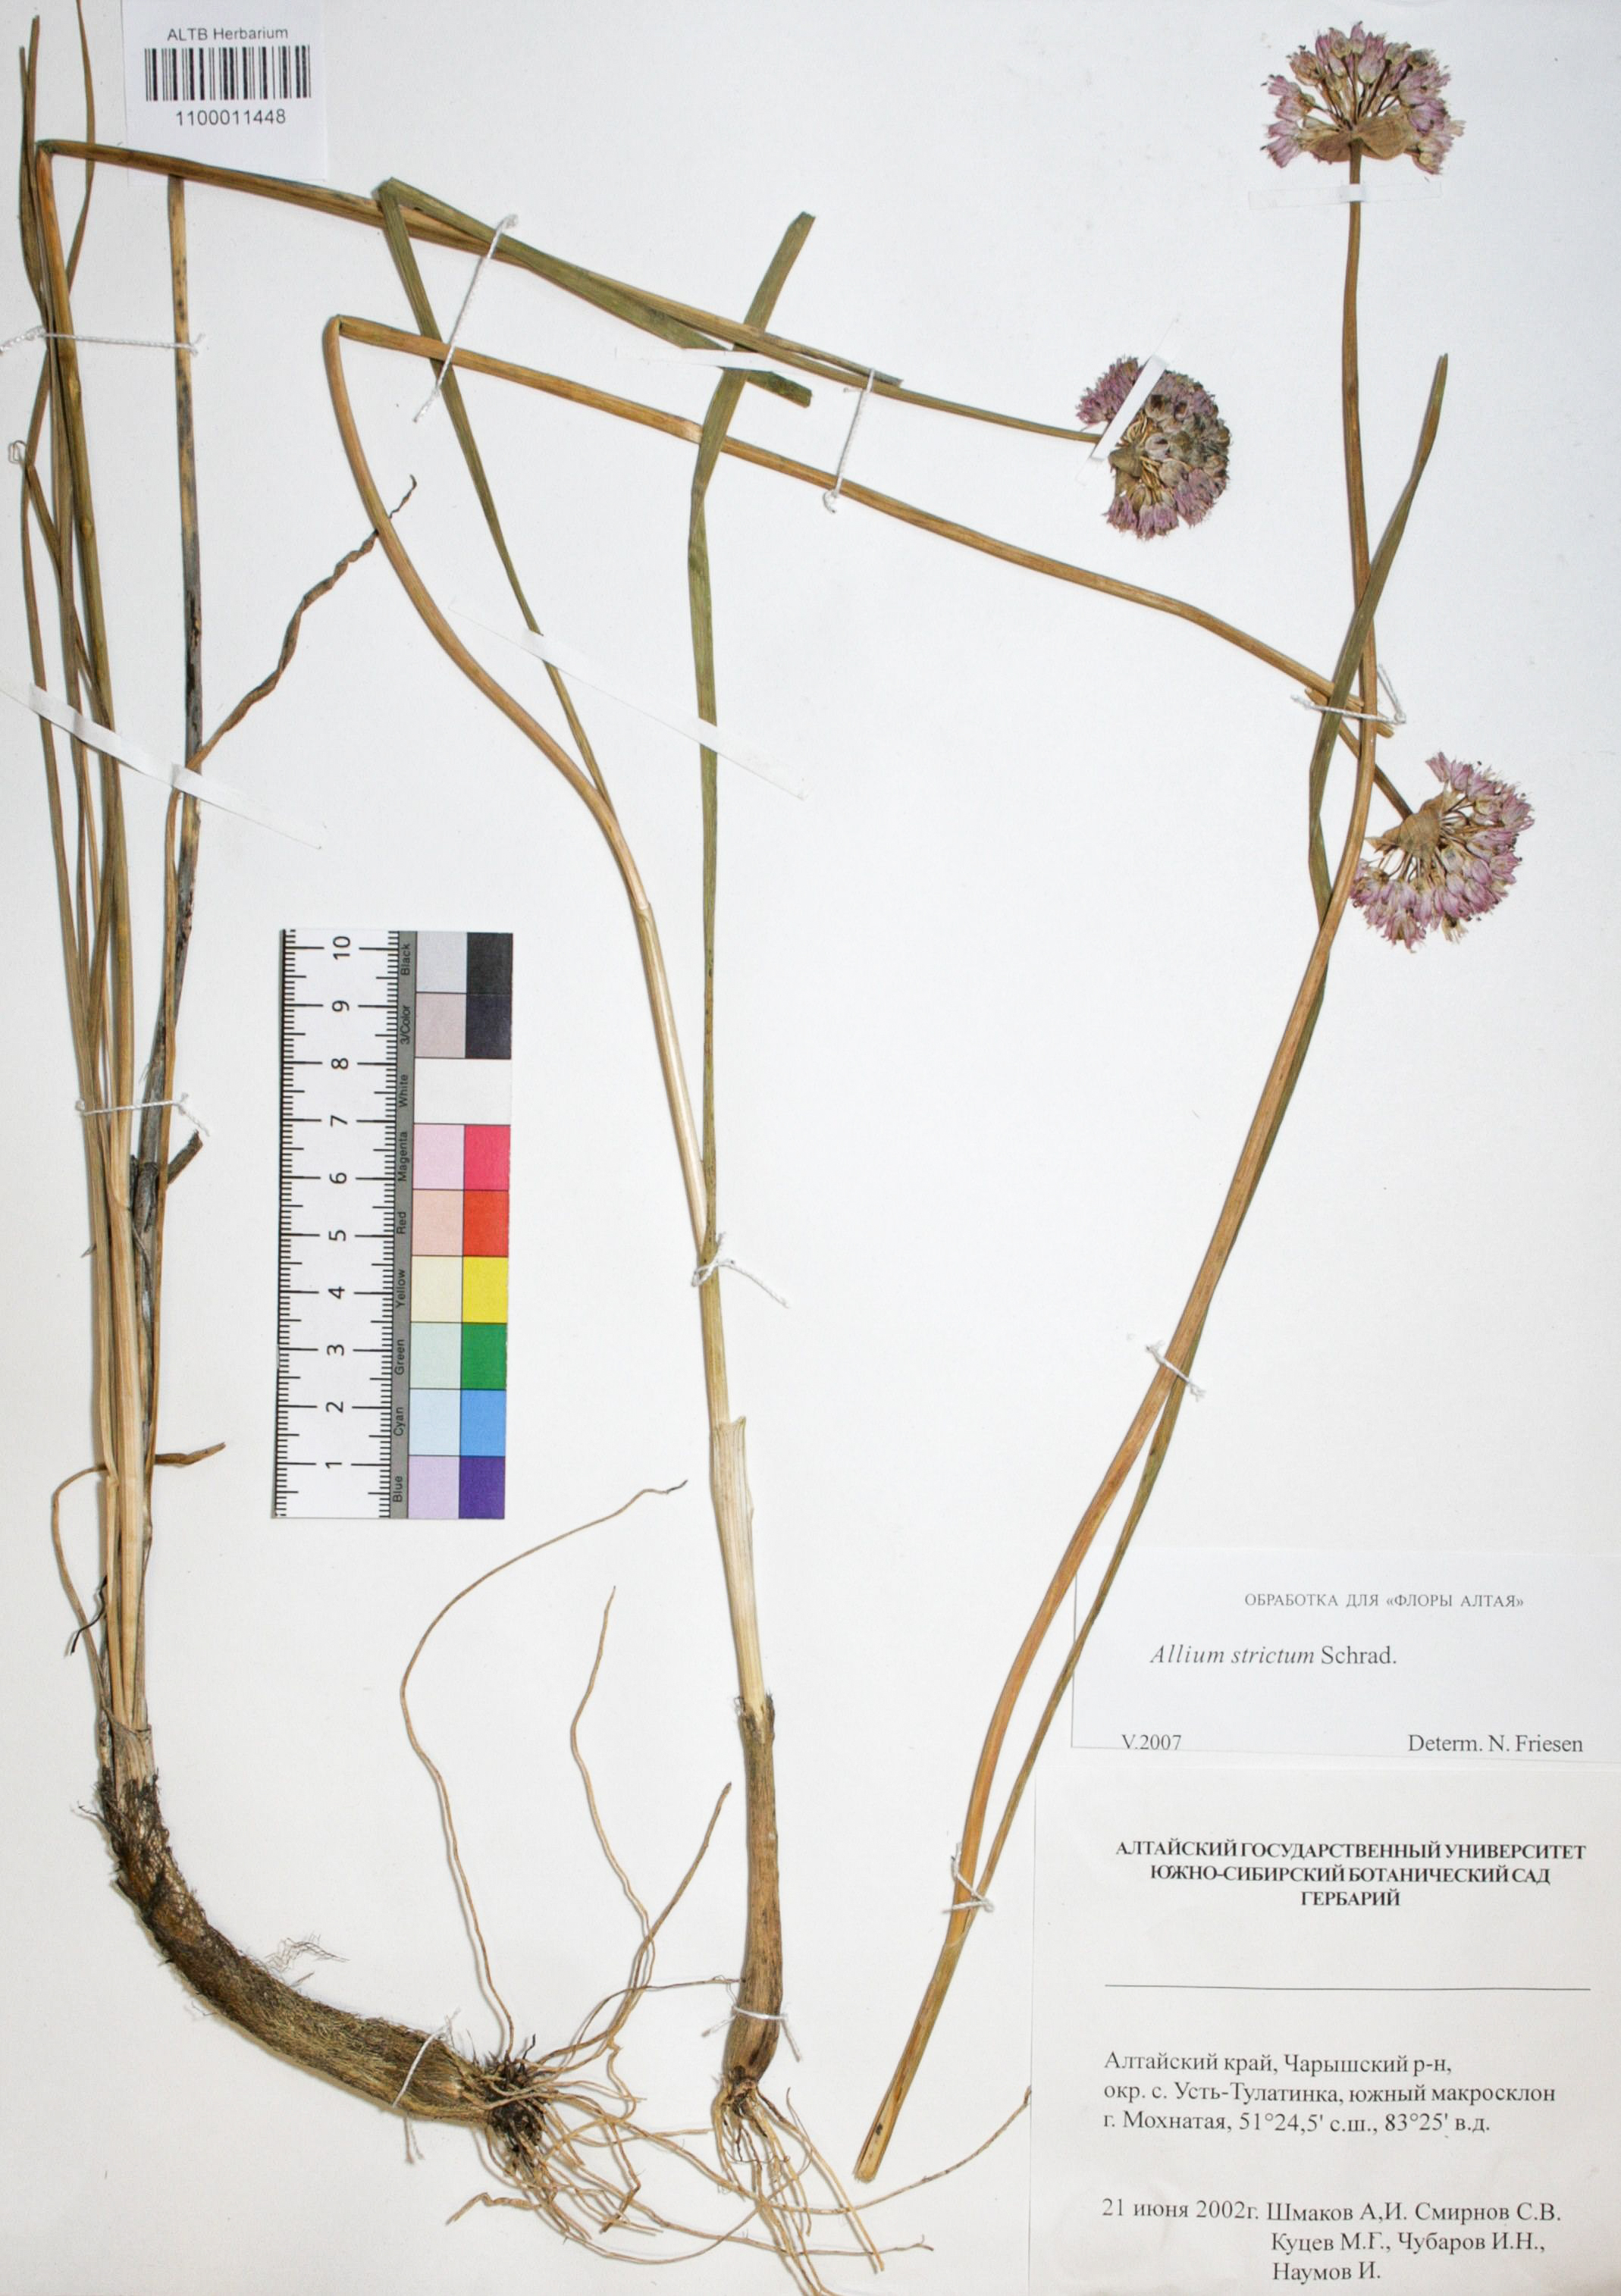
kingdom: Plantae
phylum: Tracheophyta
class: Liliopsida
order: Asparagales
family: Amaryllidaceae
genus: Allium
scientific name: Allium strictum
